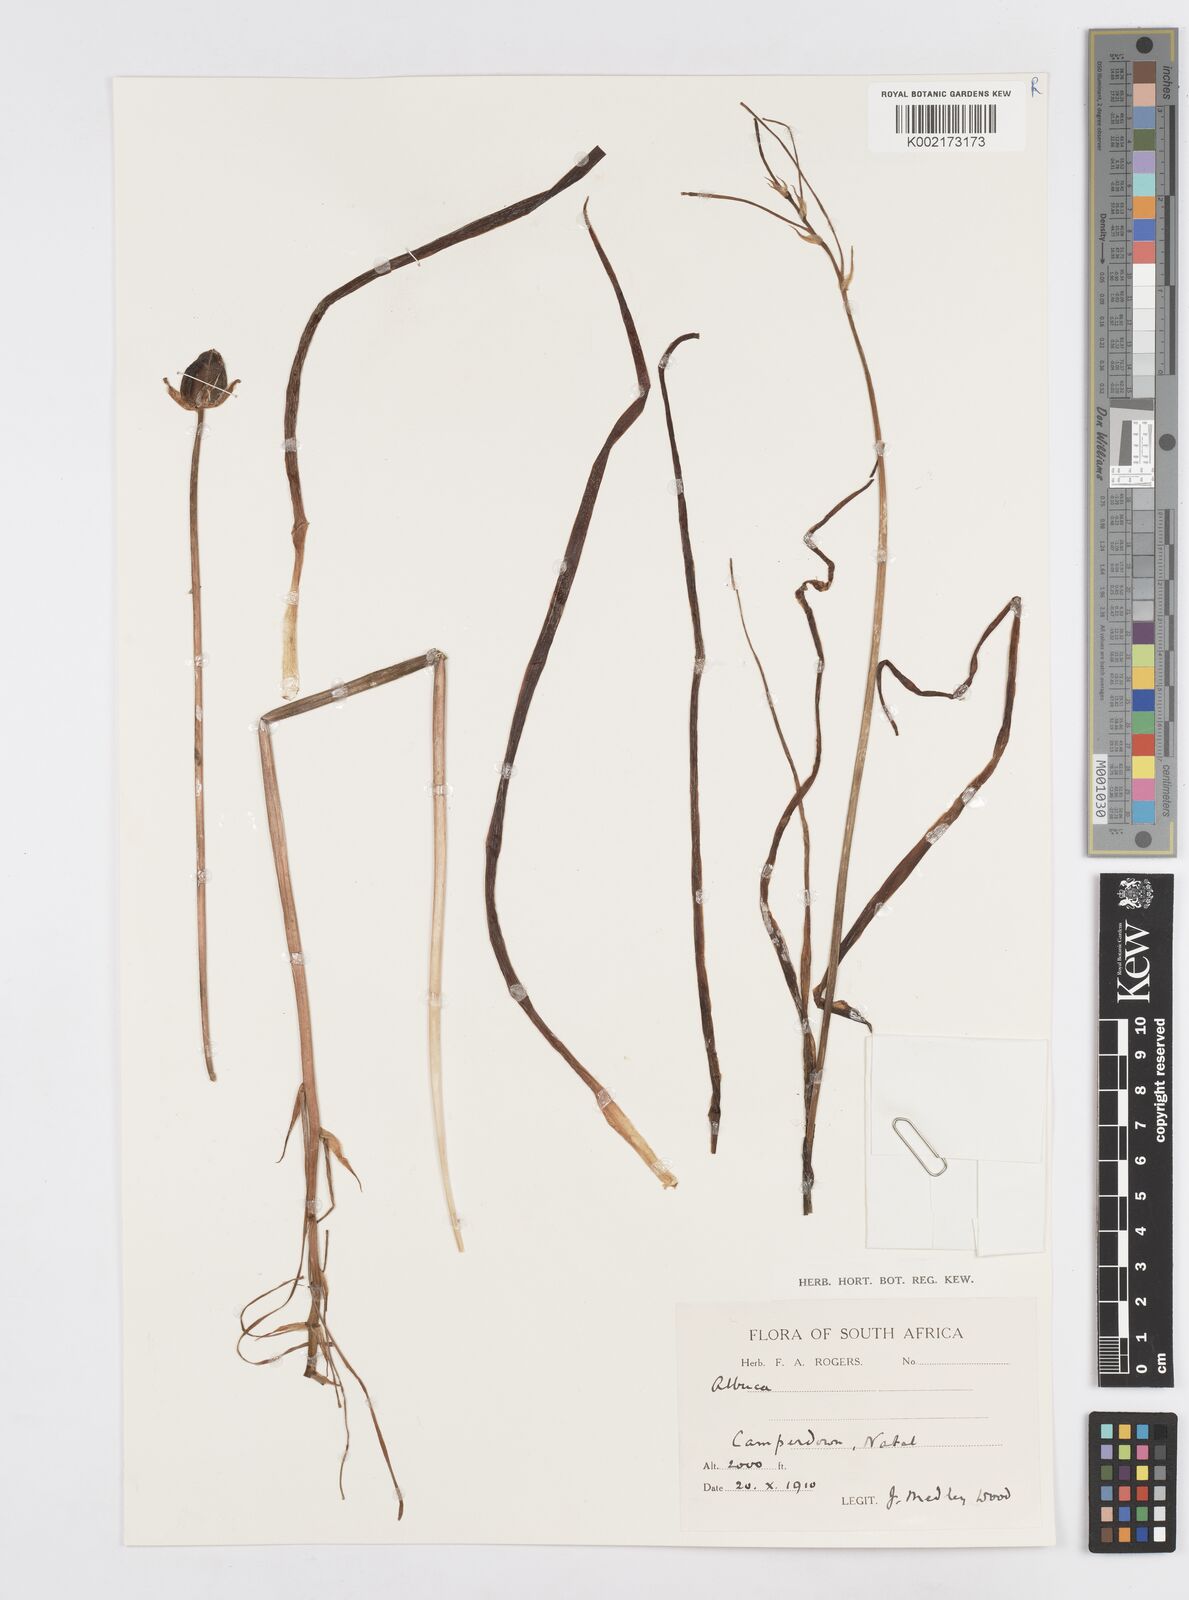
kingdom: Plantae
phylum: Tracheophyta
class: Liliopsida
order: Asparagales
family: Asparagaceae
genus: Albuca
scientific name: Albuca
